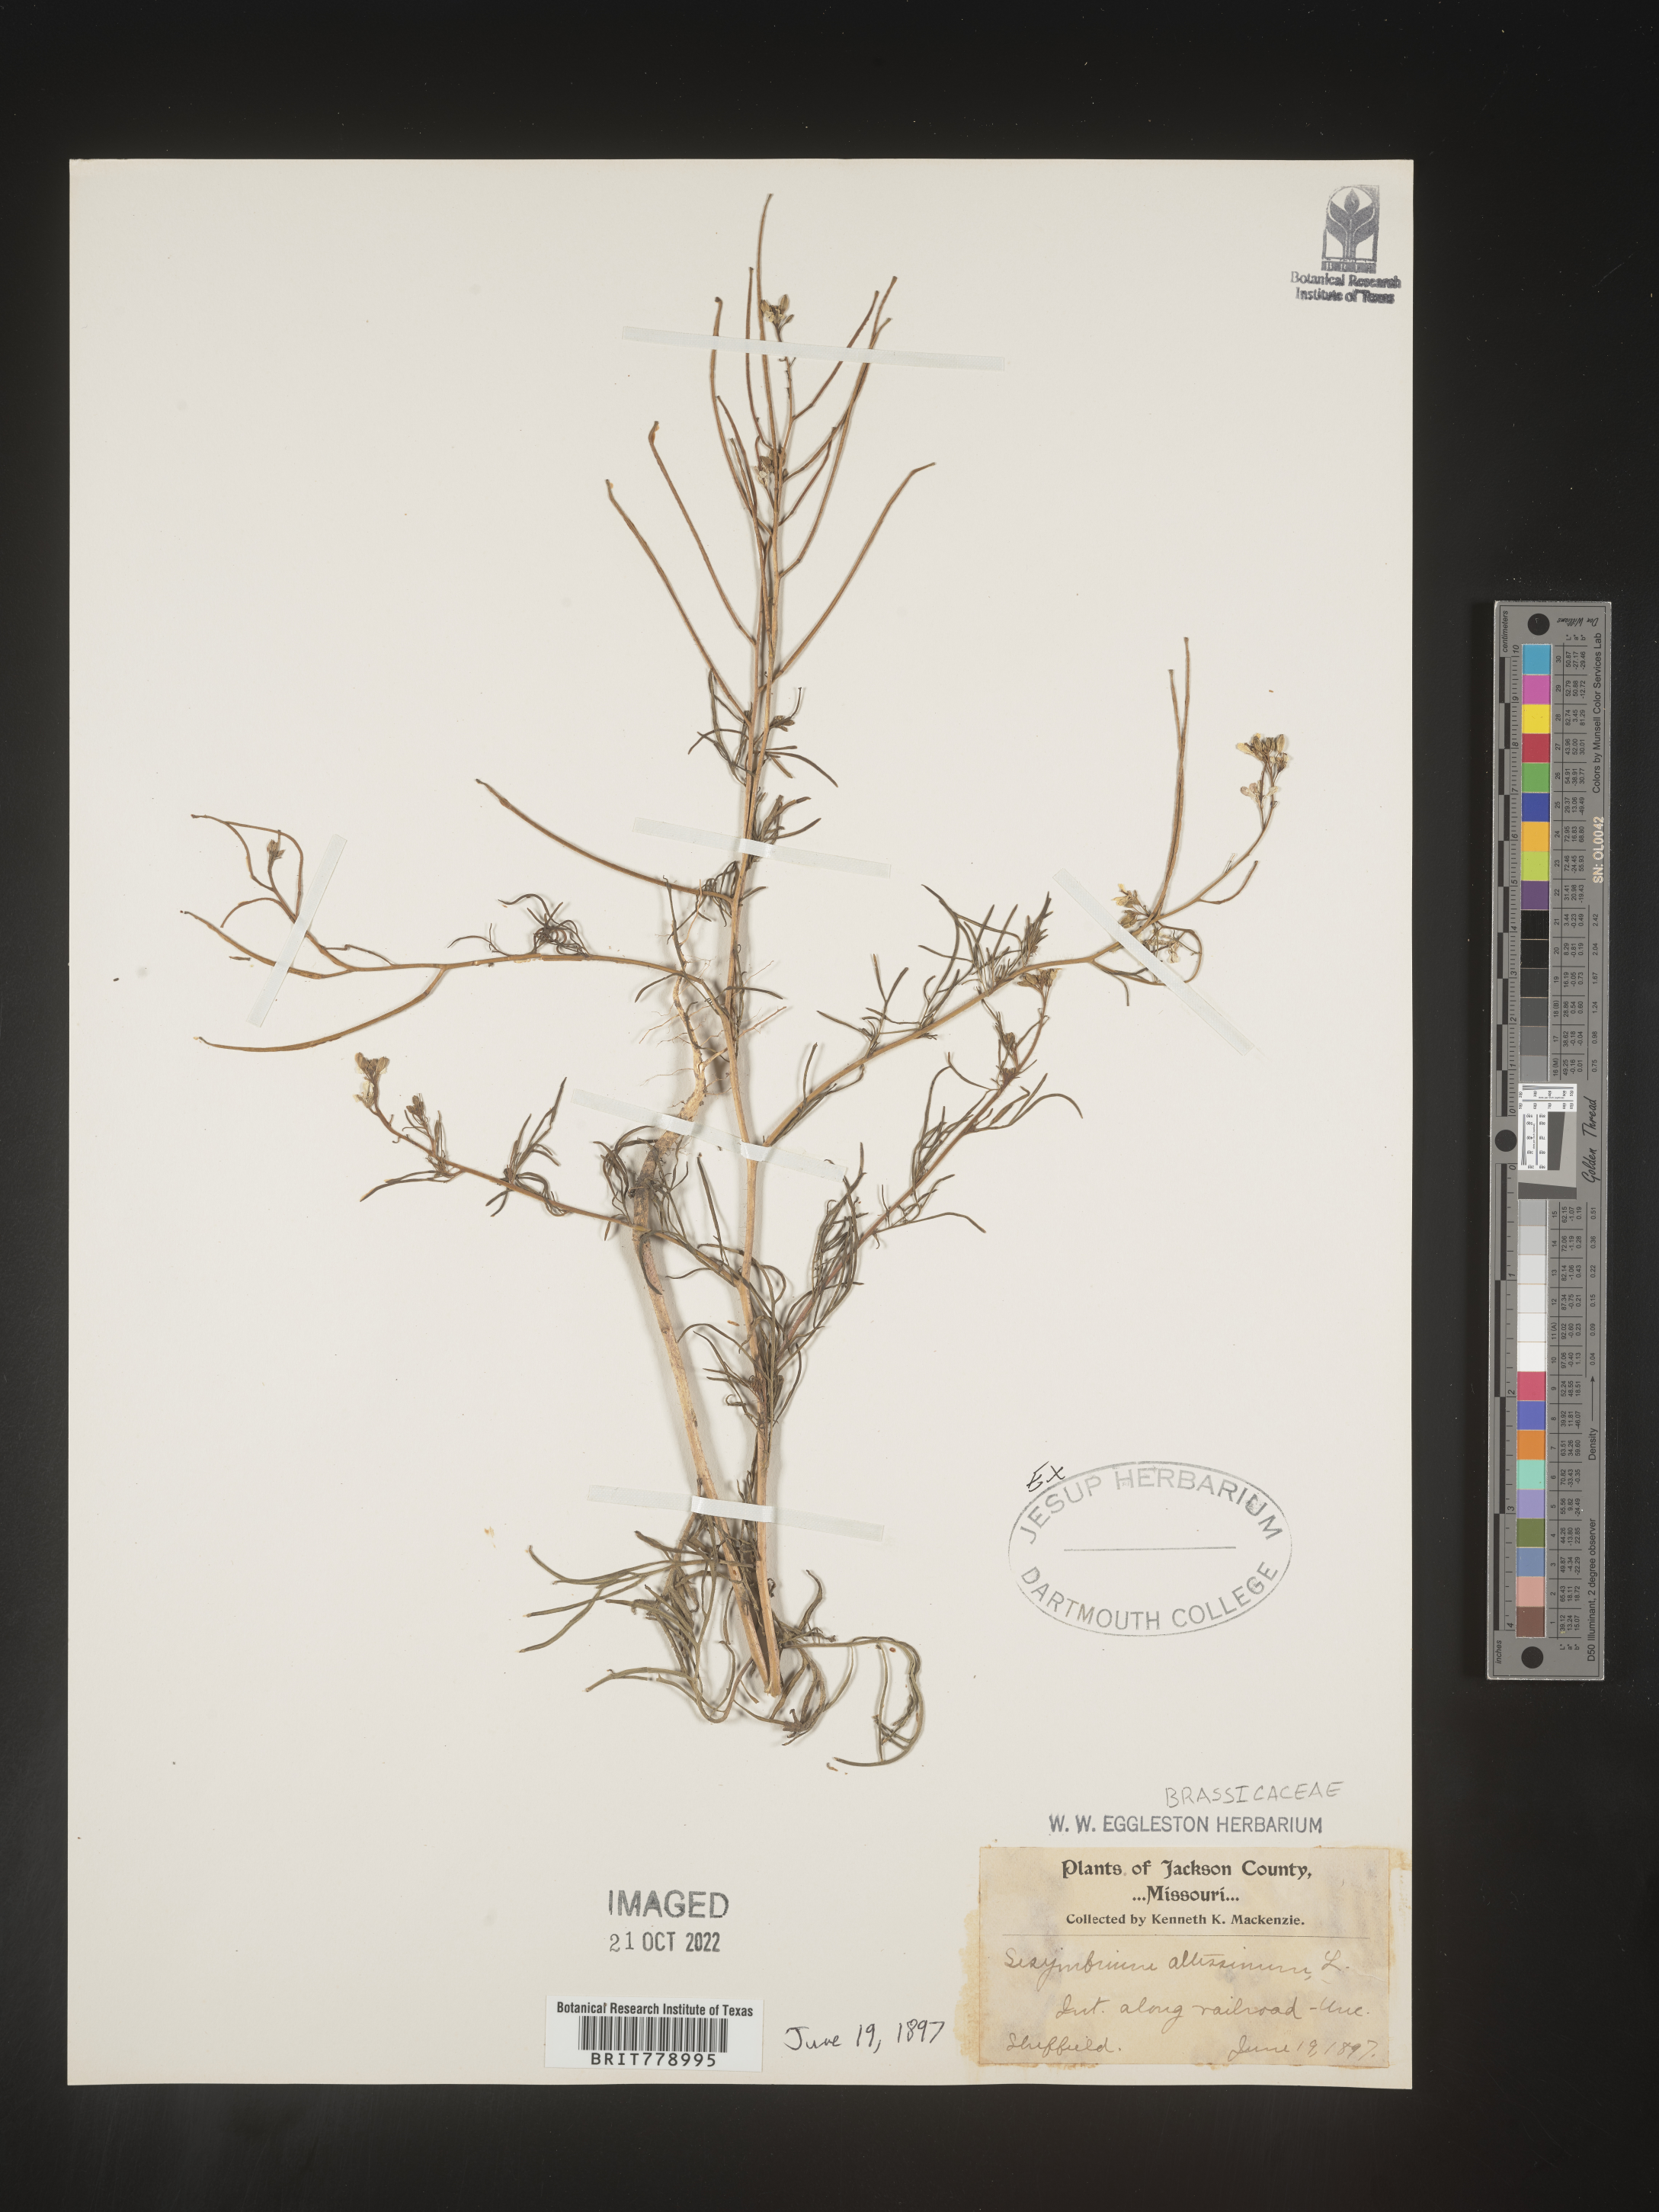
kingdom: Plantae
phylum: Tracheophyta
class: Magnoliopsida
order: Brassicales
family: Brassicaceae
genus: Sisymbrium
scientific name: Sisymbrium altissimum
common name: Tall rocket
